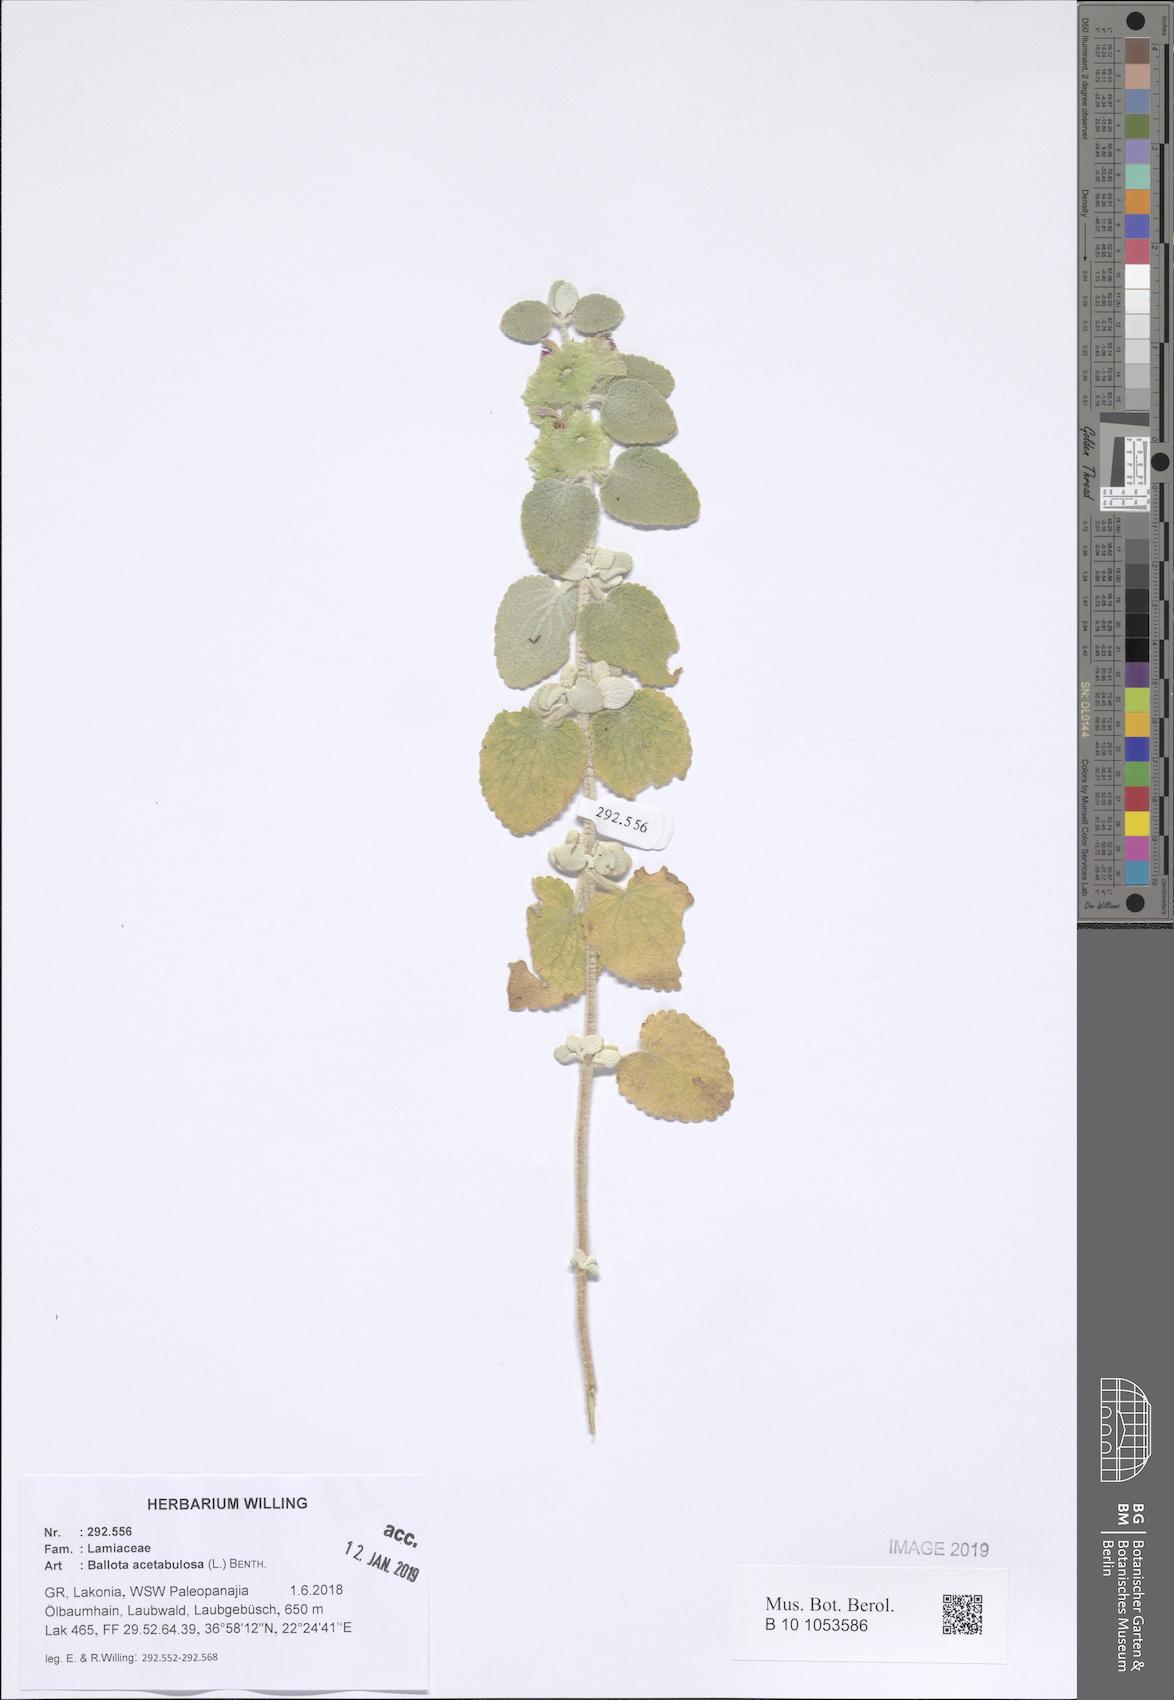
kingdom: Plantae
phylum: Tracheophyta
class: Magnoliopsida
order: Lamiales
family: Lamiaceae
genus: Pseudodictamnus
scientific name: Pseudodictamnus acetabulosus
